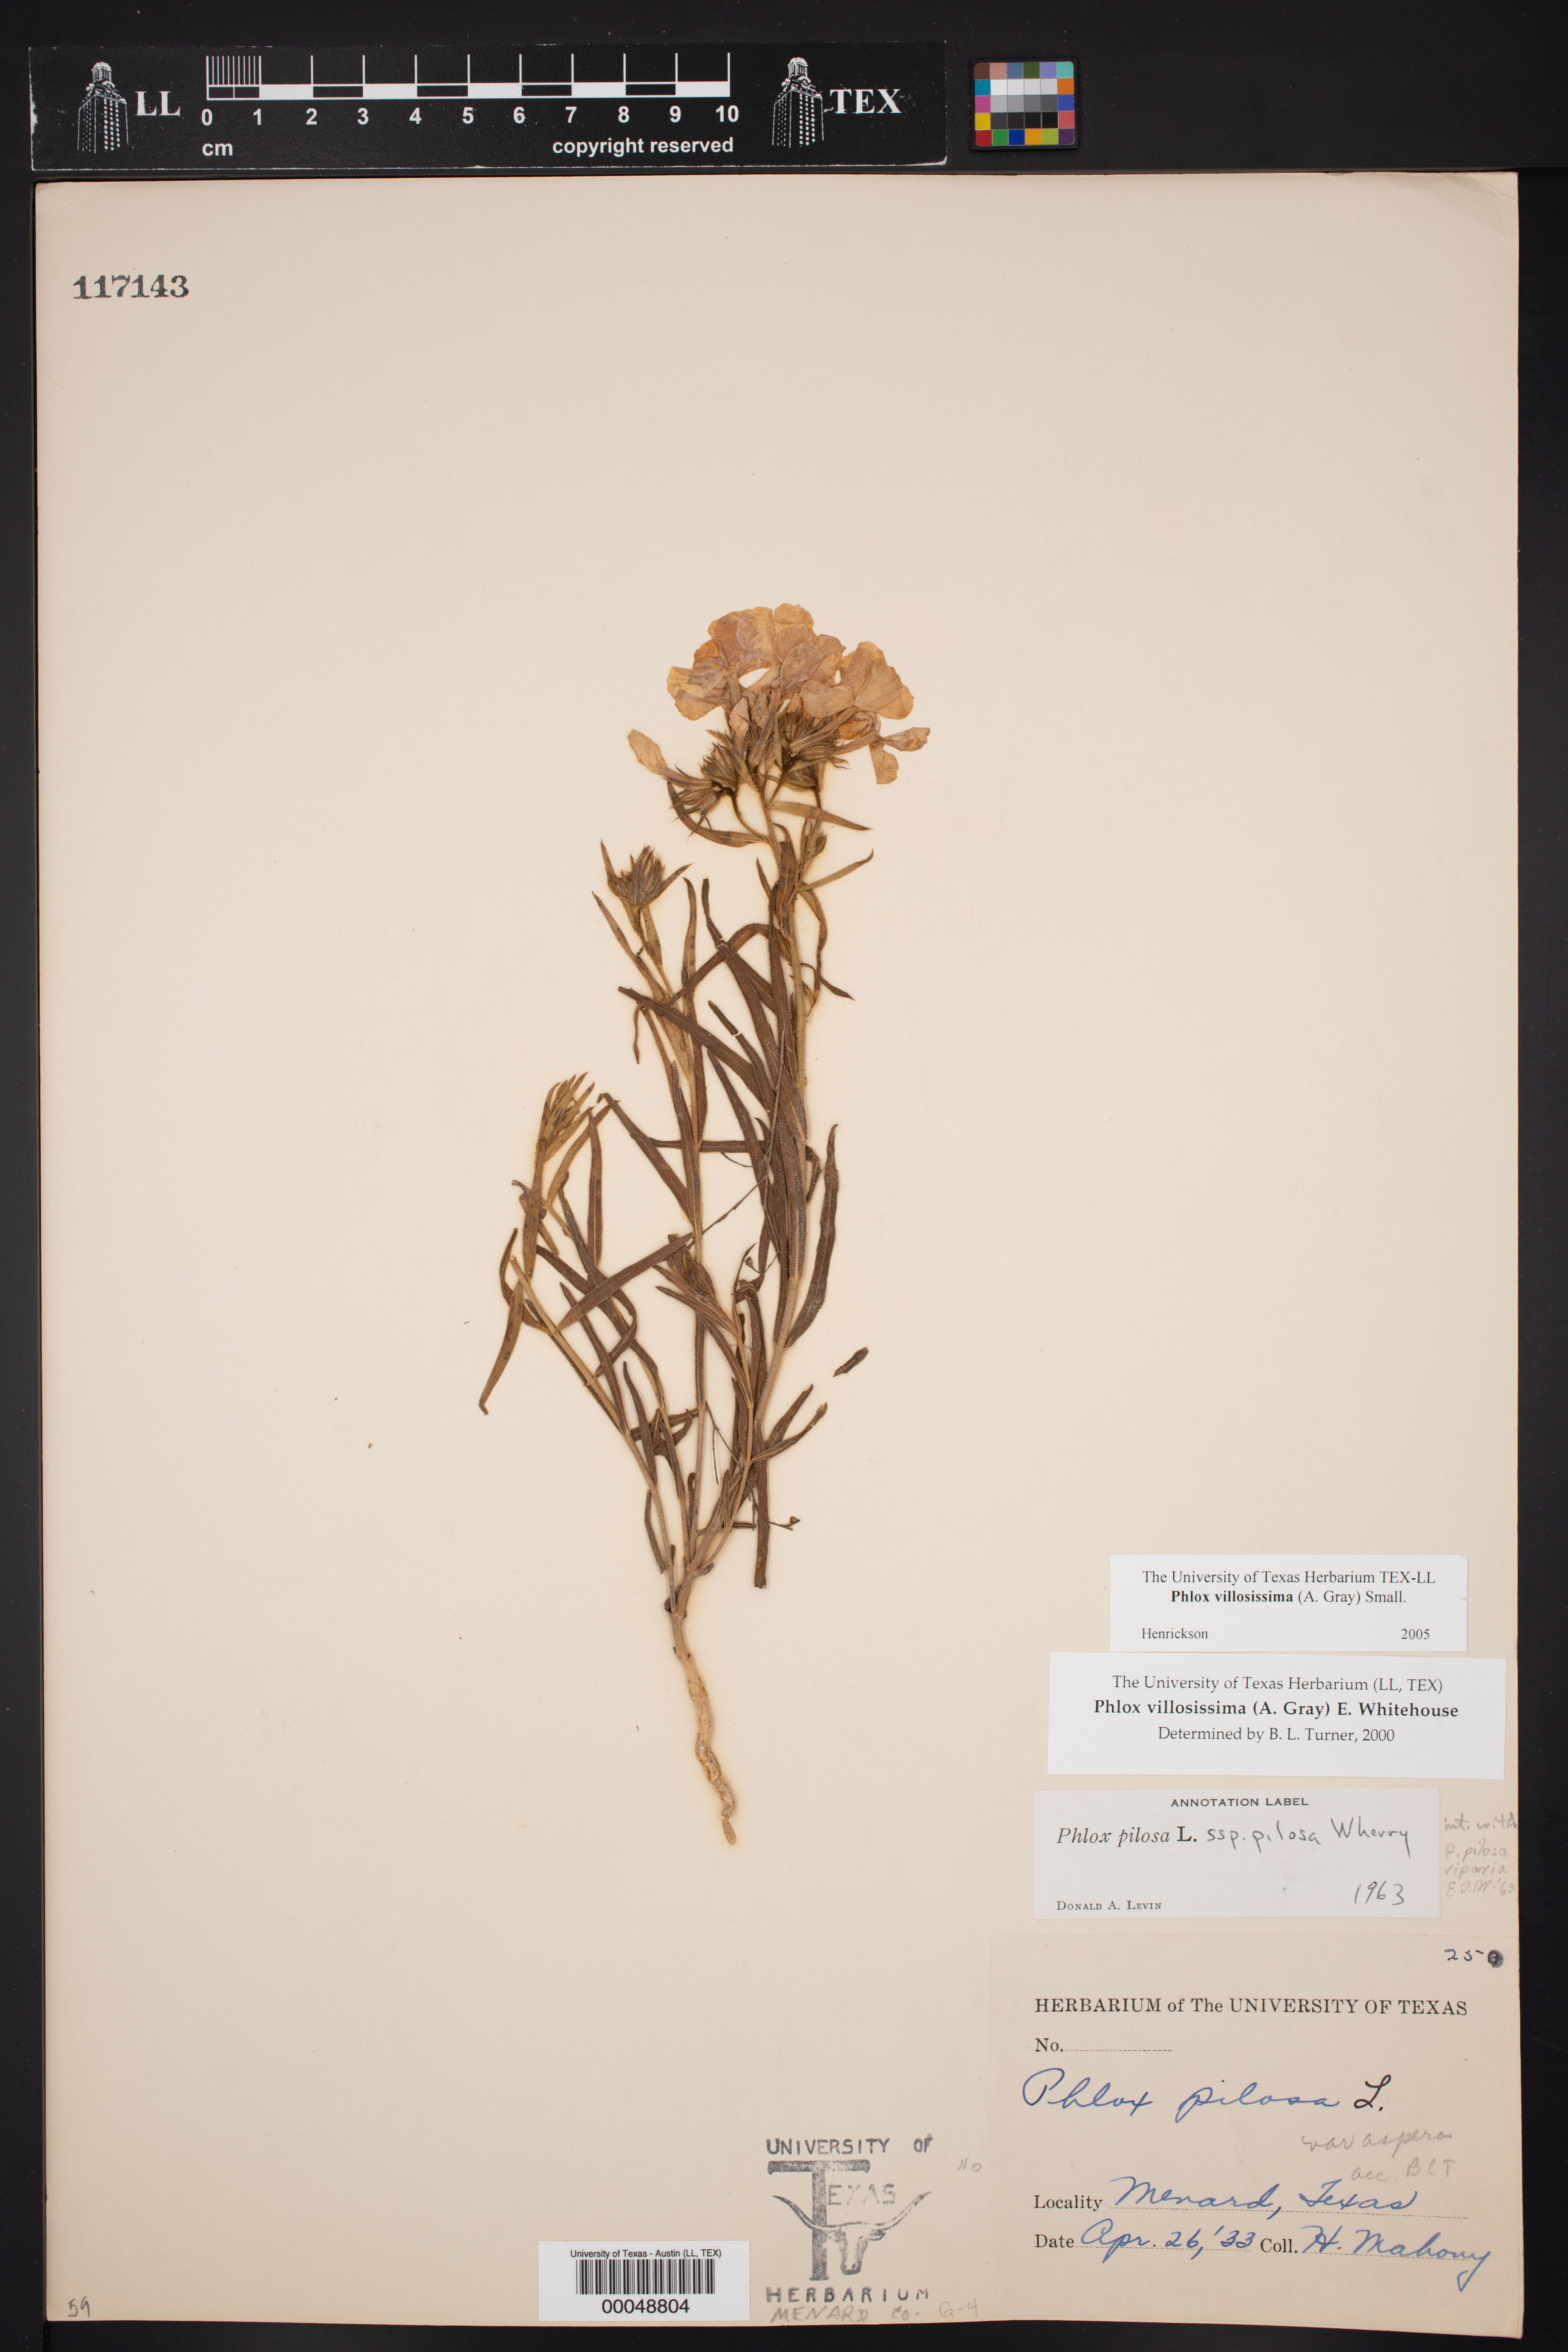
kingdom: Plantae
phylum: Tracheophyta
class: Magnoliopsida
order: Ericales
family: Polemoniaceae
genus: Phlox
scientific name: Phlox pilosa
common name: Prairie phlox
